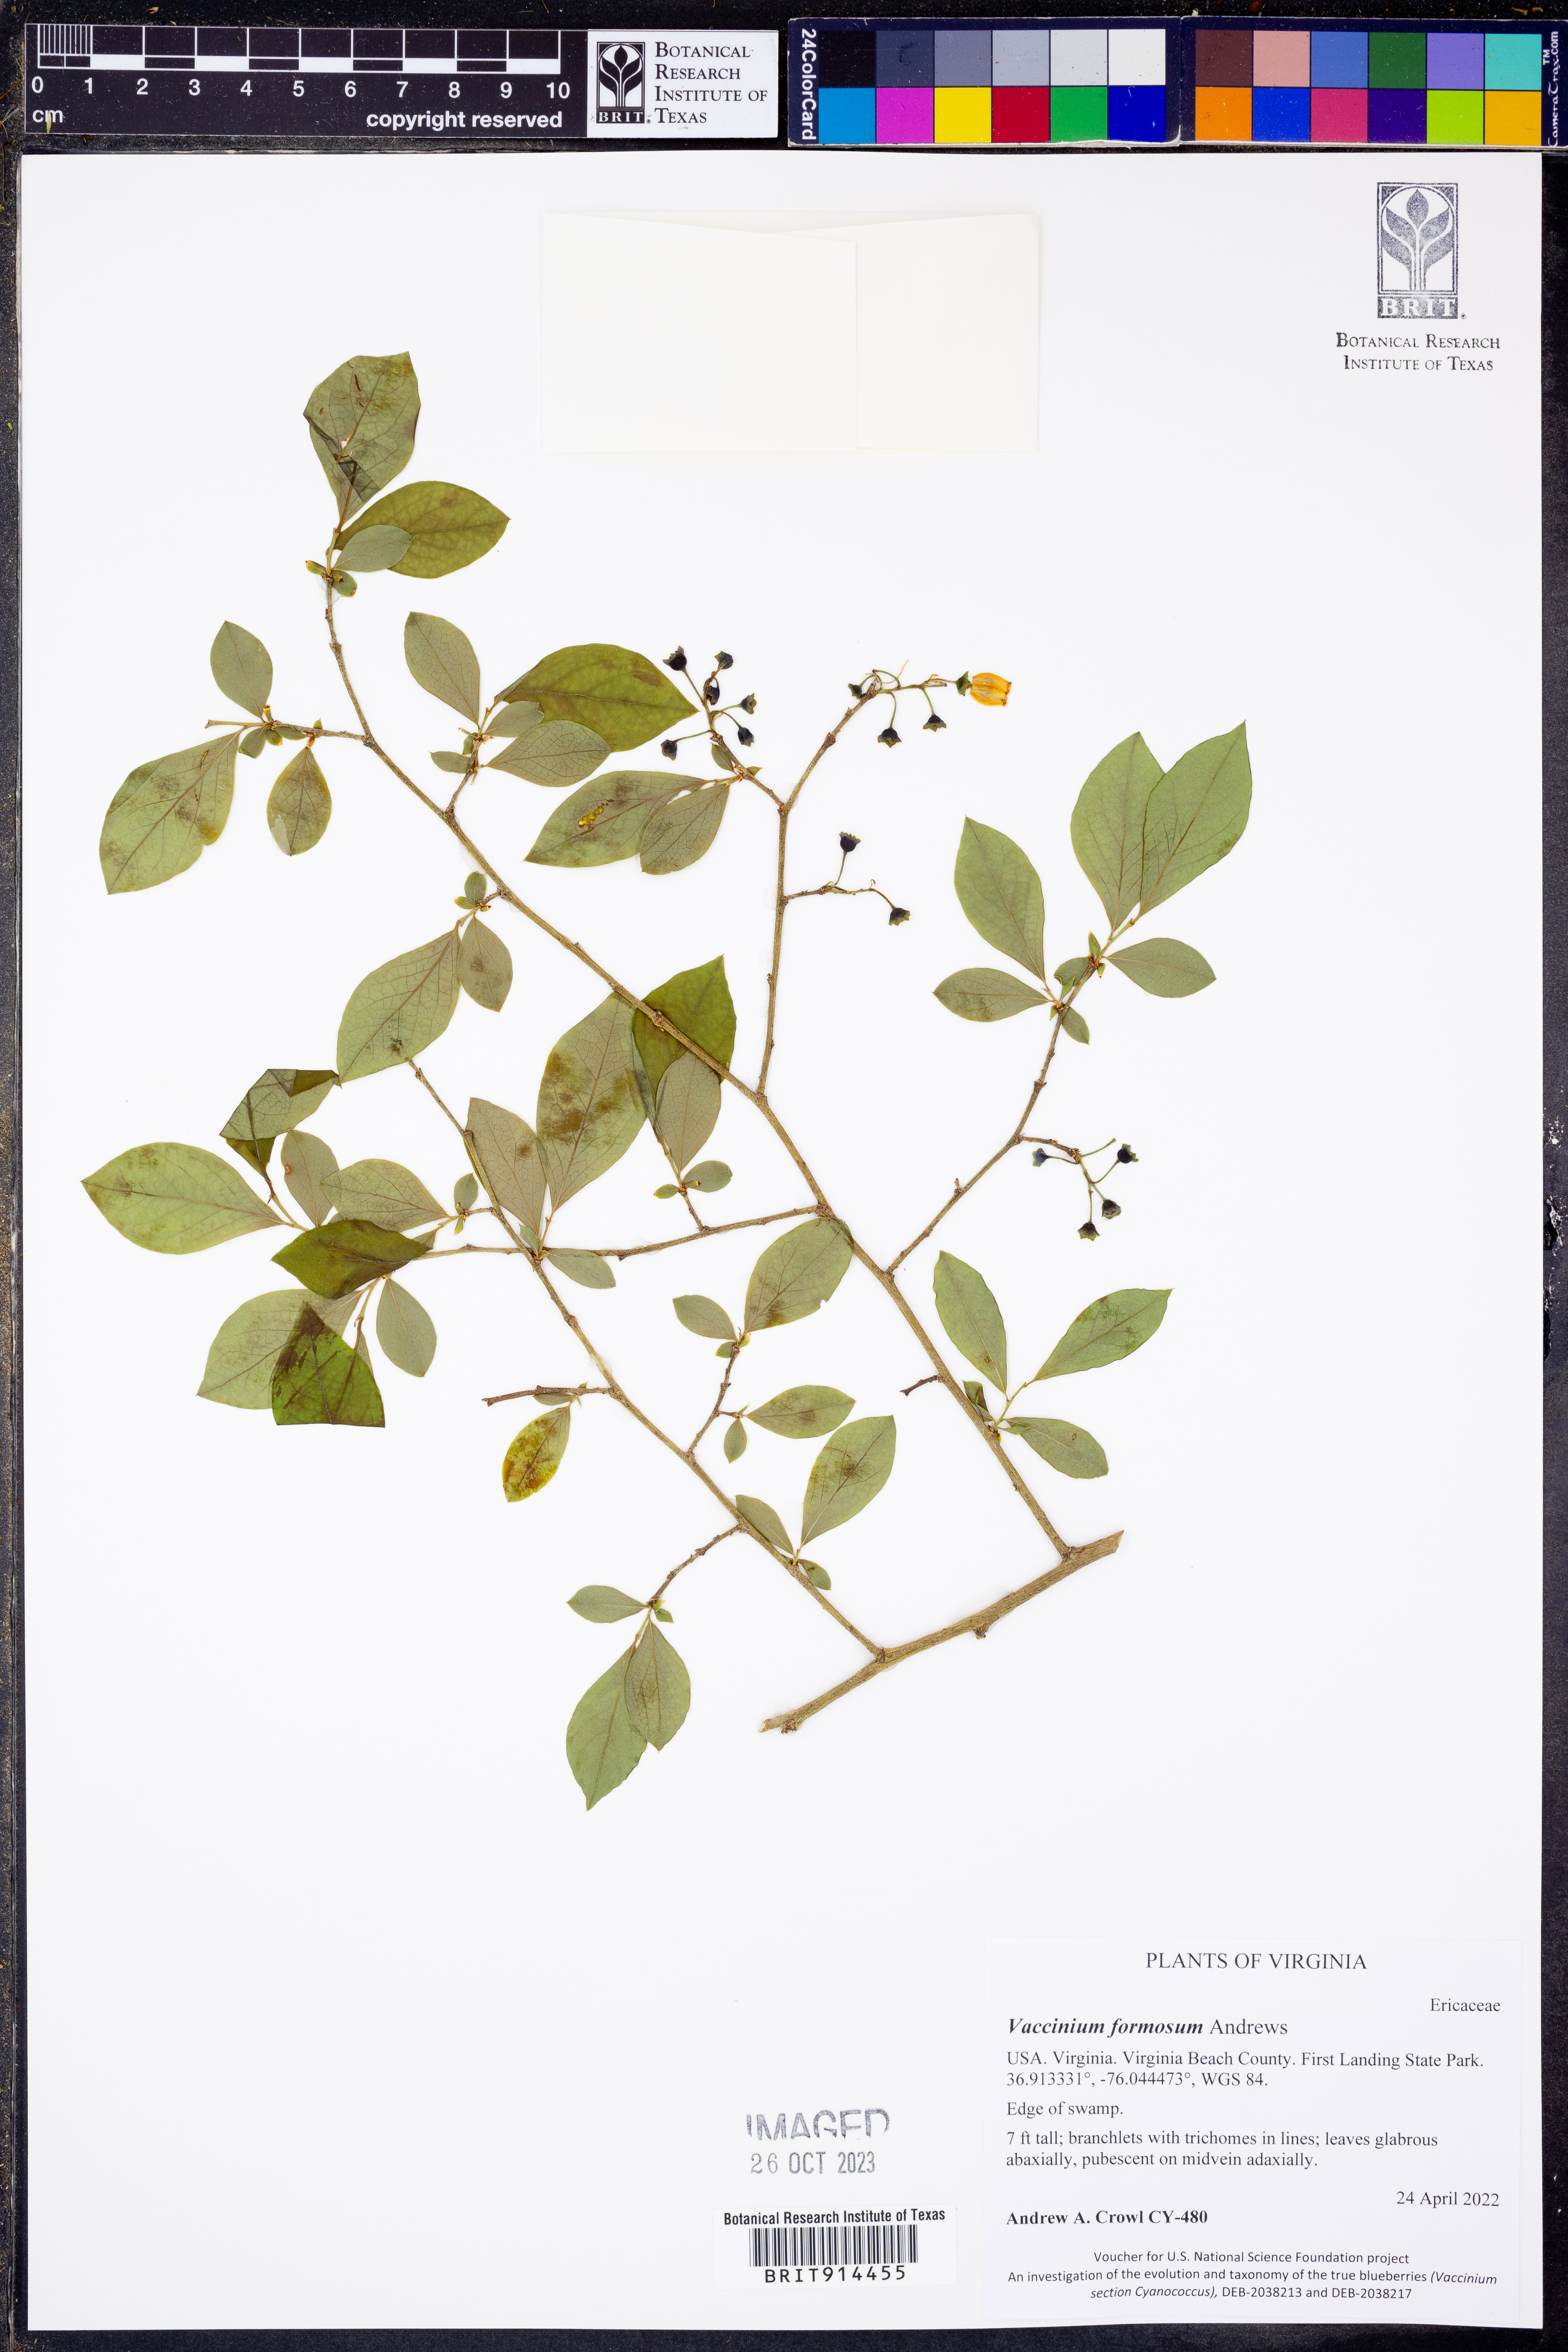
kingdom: Plantae
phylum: Tracheophyta
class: Magnoliopsida
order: Ericales
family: Ericaceae
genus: Vaccinium
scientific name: Vaccinium corymbosum
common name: Blueberry
